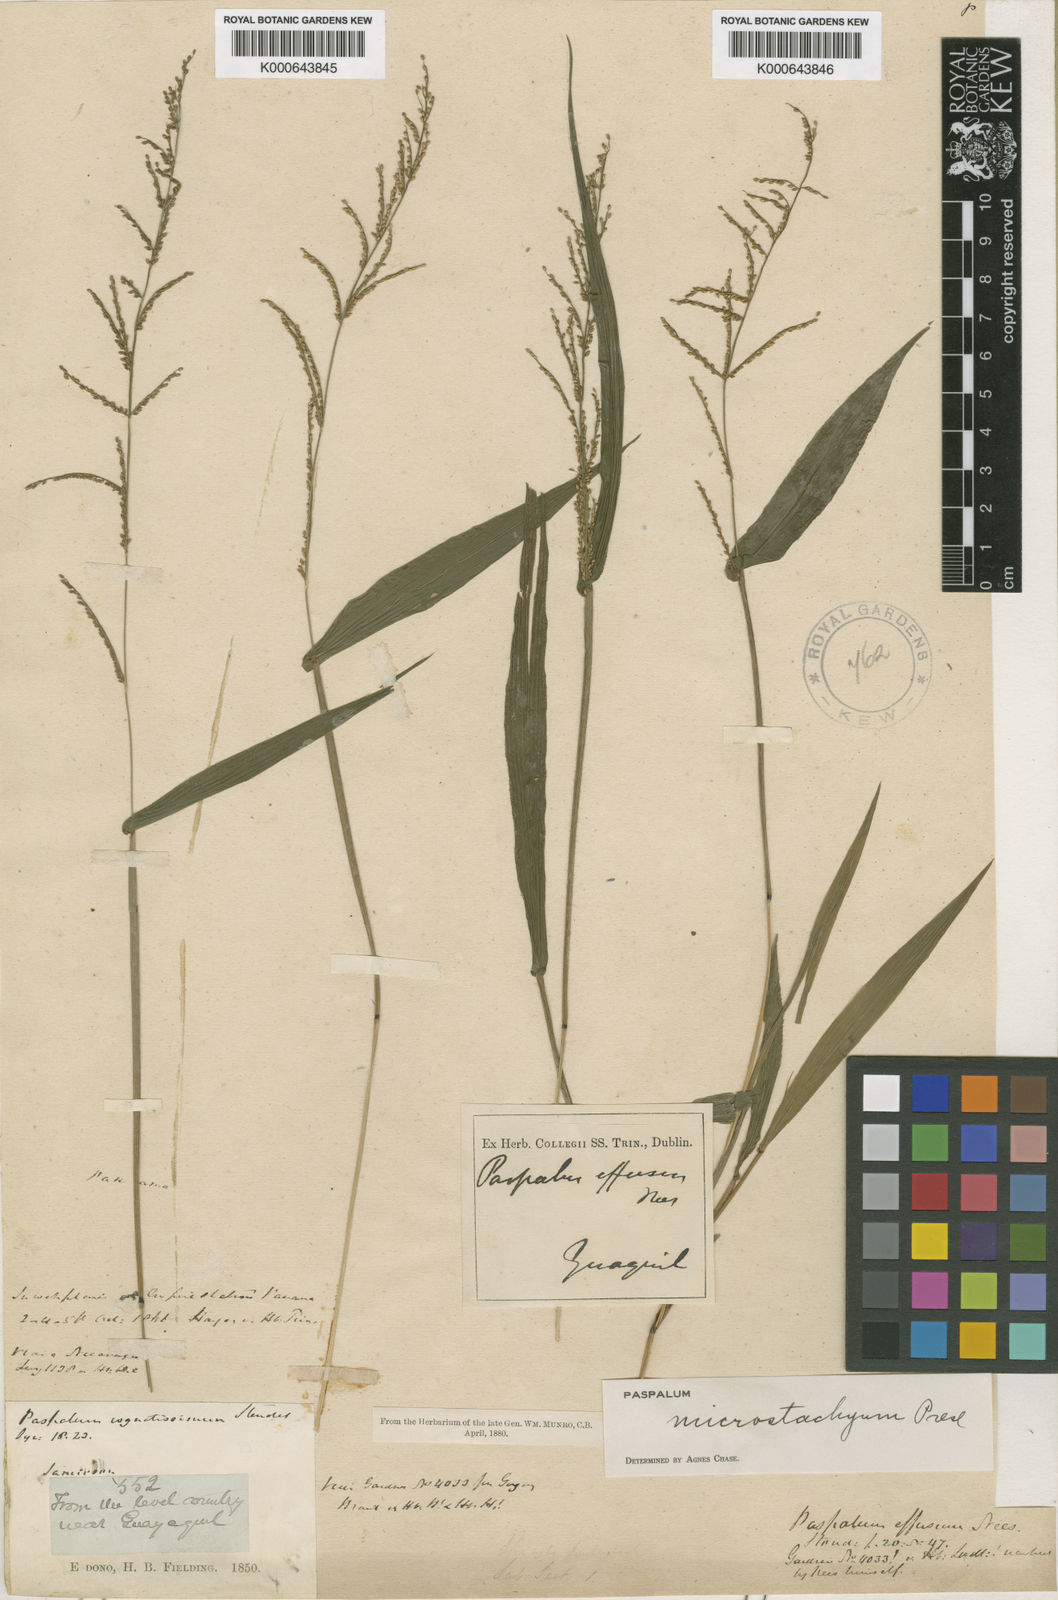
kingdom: Plantae
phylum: Tracheophyta
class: Liliopsida
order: Poales
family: Poaceae
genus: Paspalum
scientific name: Paspalum microstachyum
